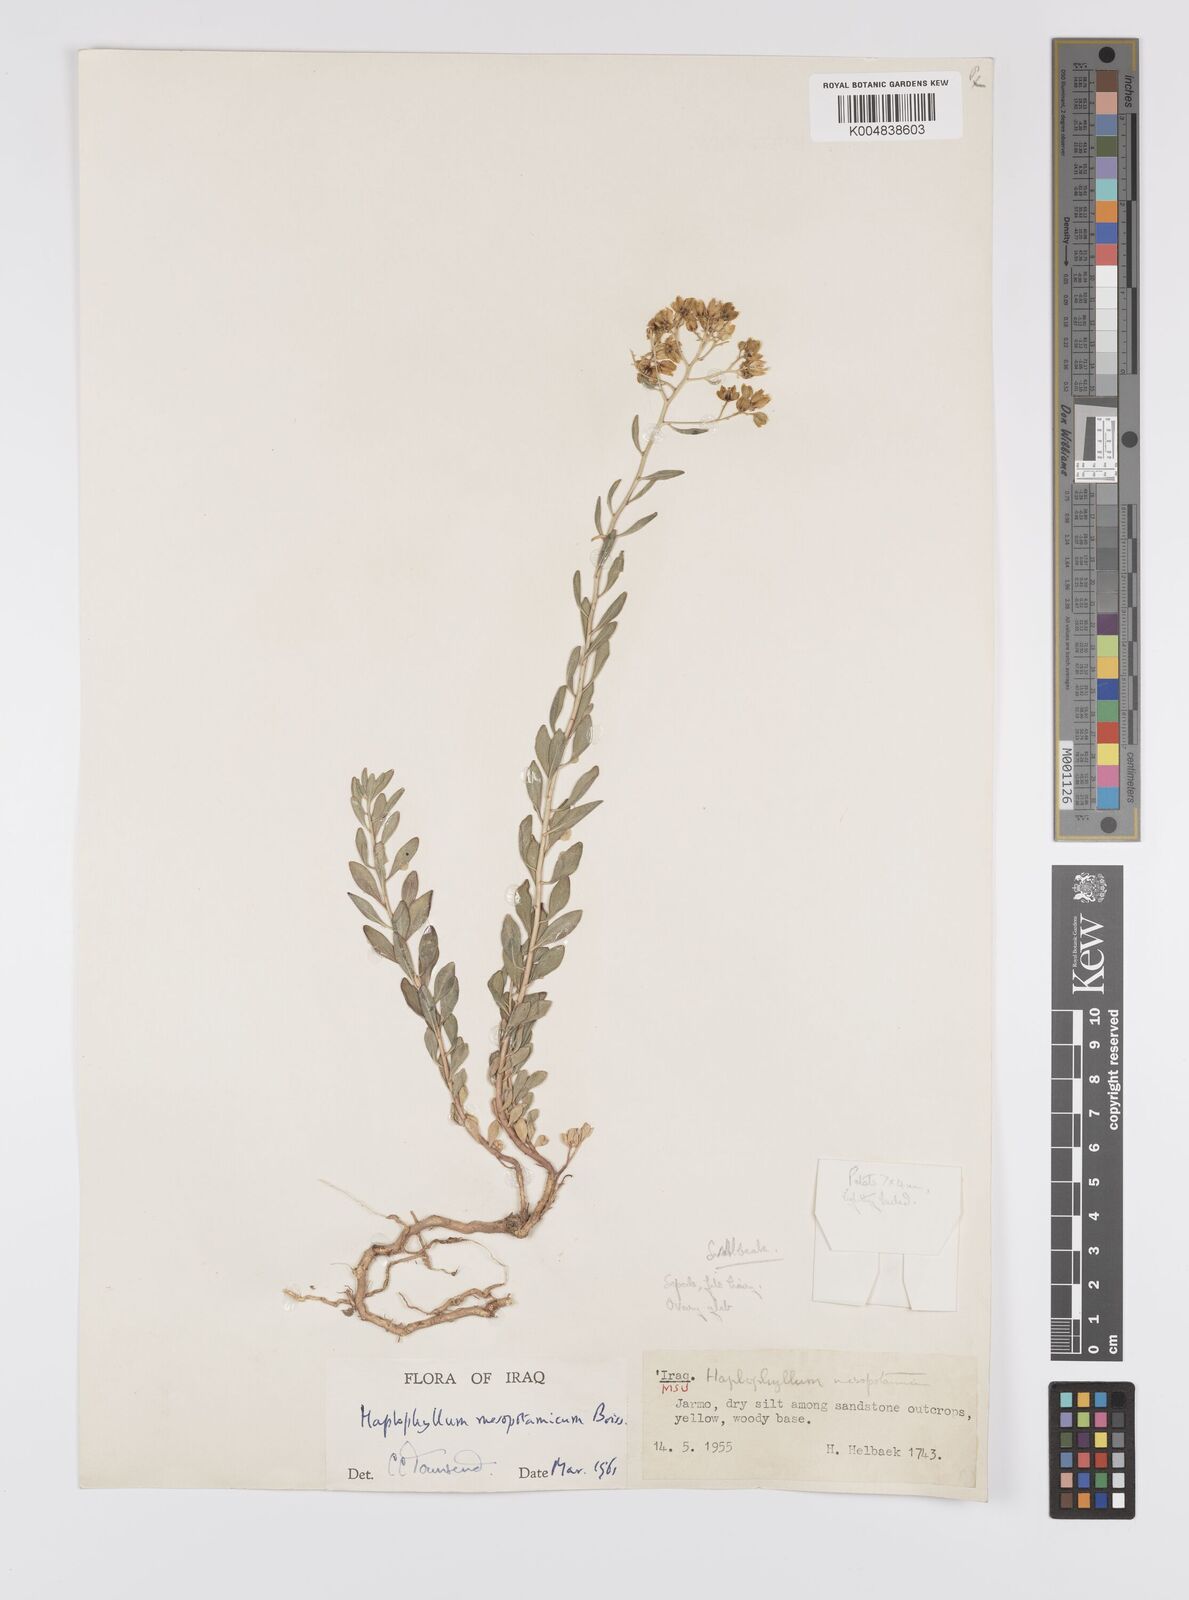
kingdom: Plantae
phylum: Tracheophyta
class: Magnoliopsida
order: Sapindales
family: Rutaceae
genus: Haplophyllum
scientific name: Haplophyllum buxbaumii
